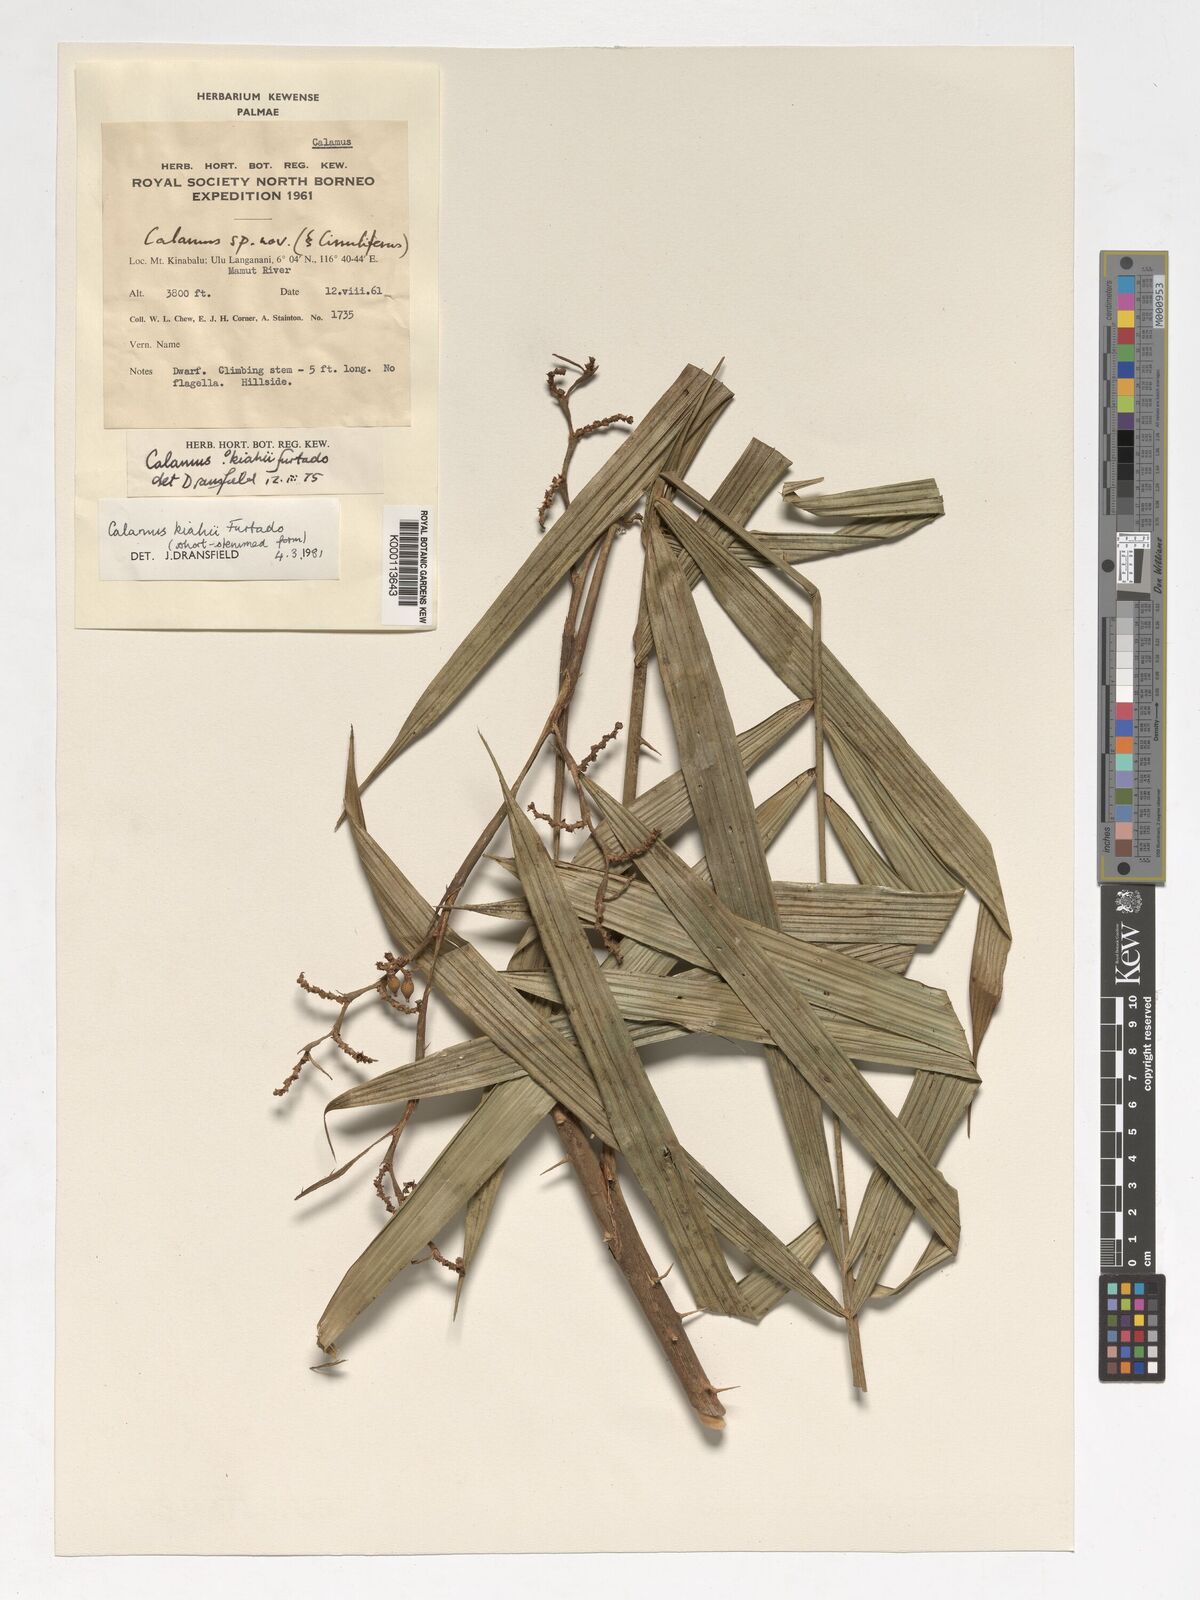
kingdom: Plantae
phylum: Tracheophyta
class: Liliopsida
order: Arecales
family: Arecaceae
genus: Calamus
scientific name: Calamus plicatus
